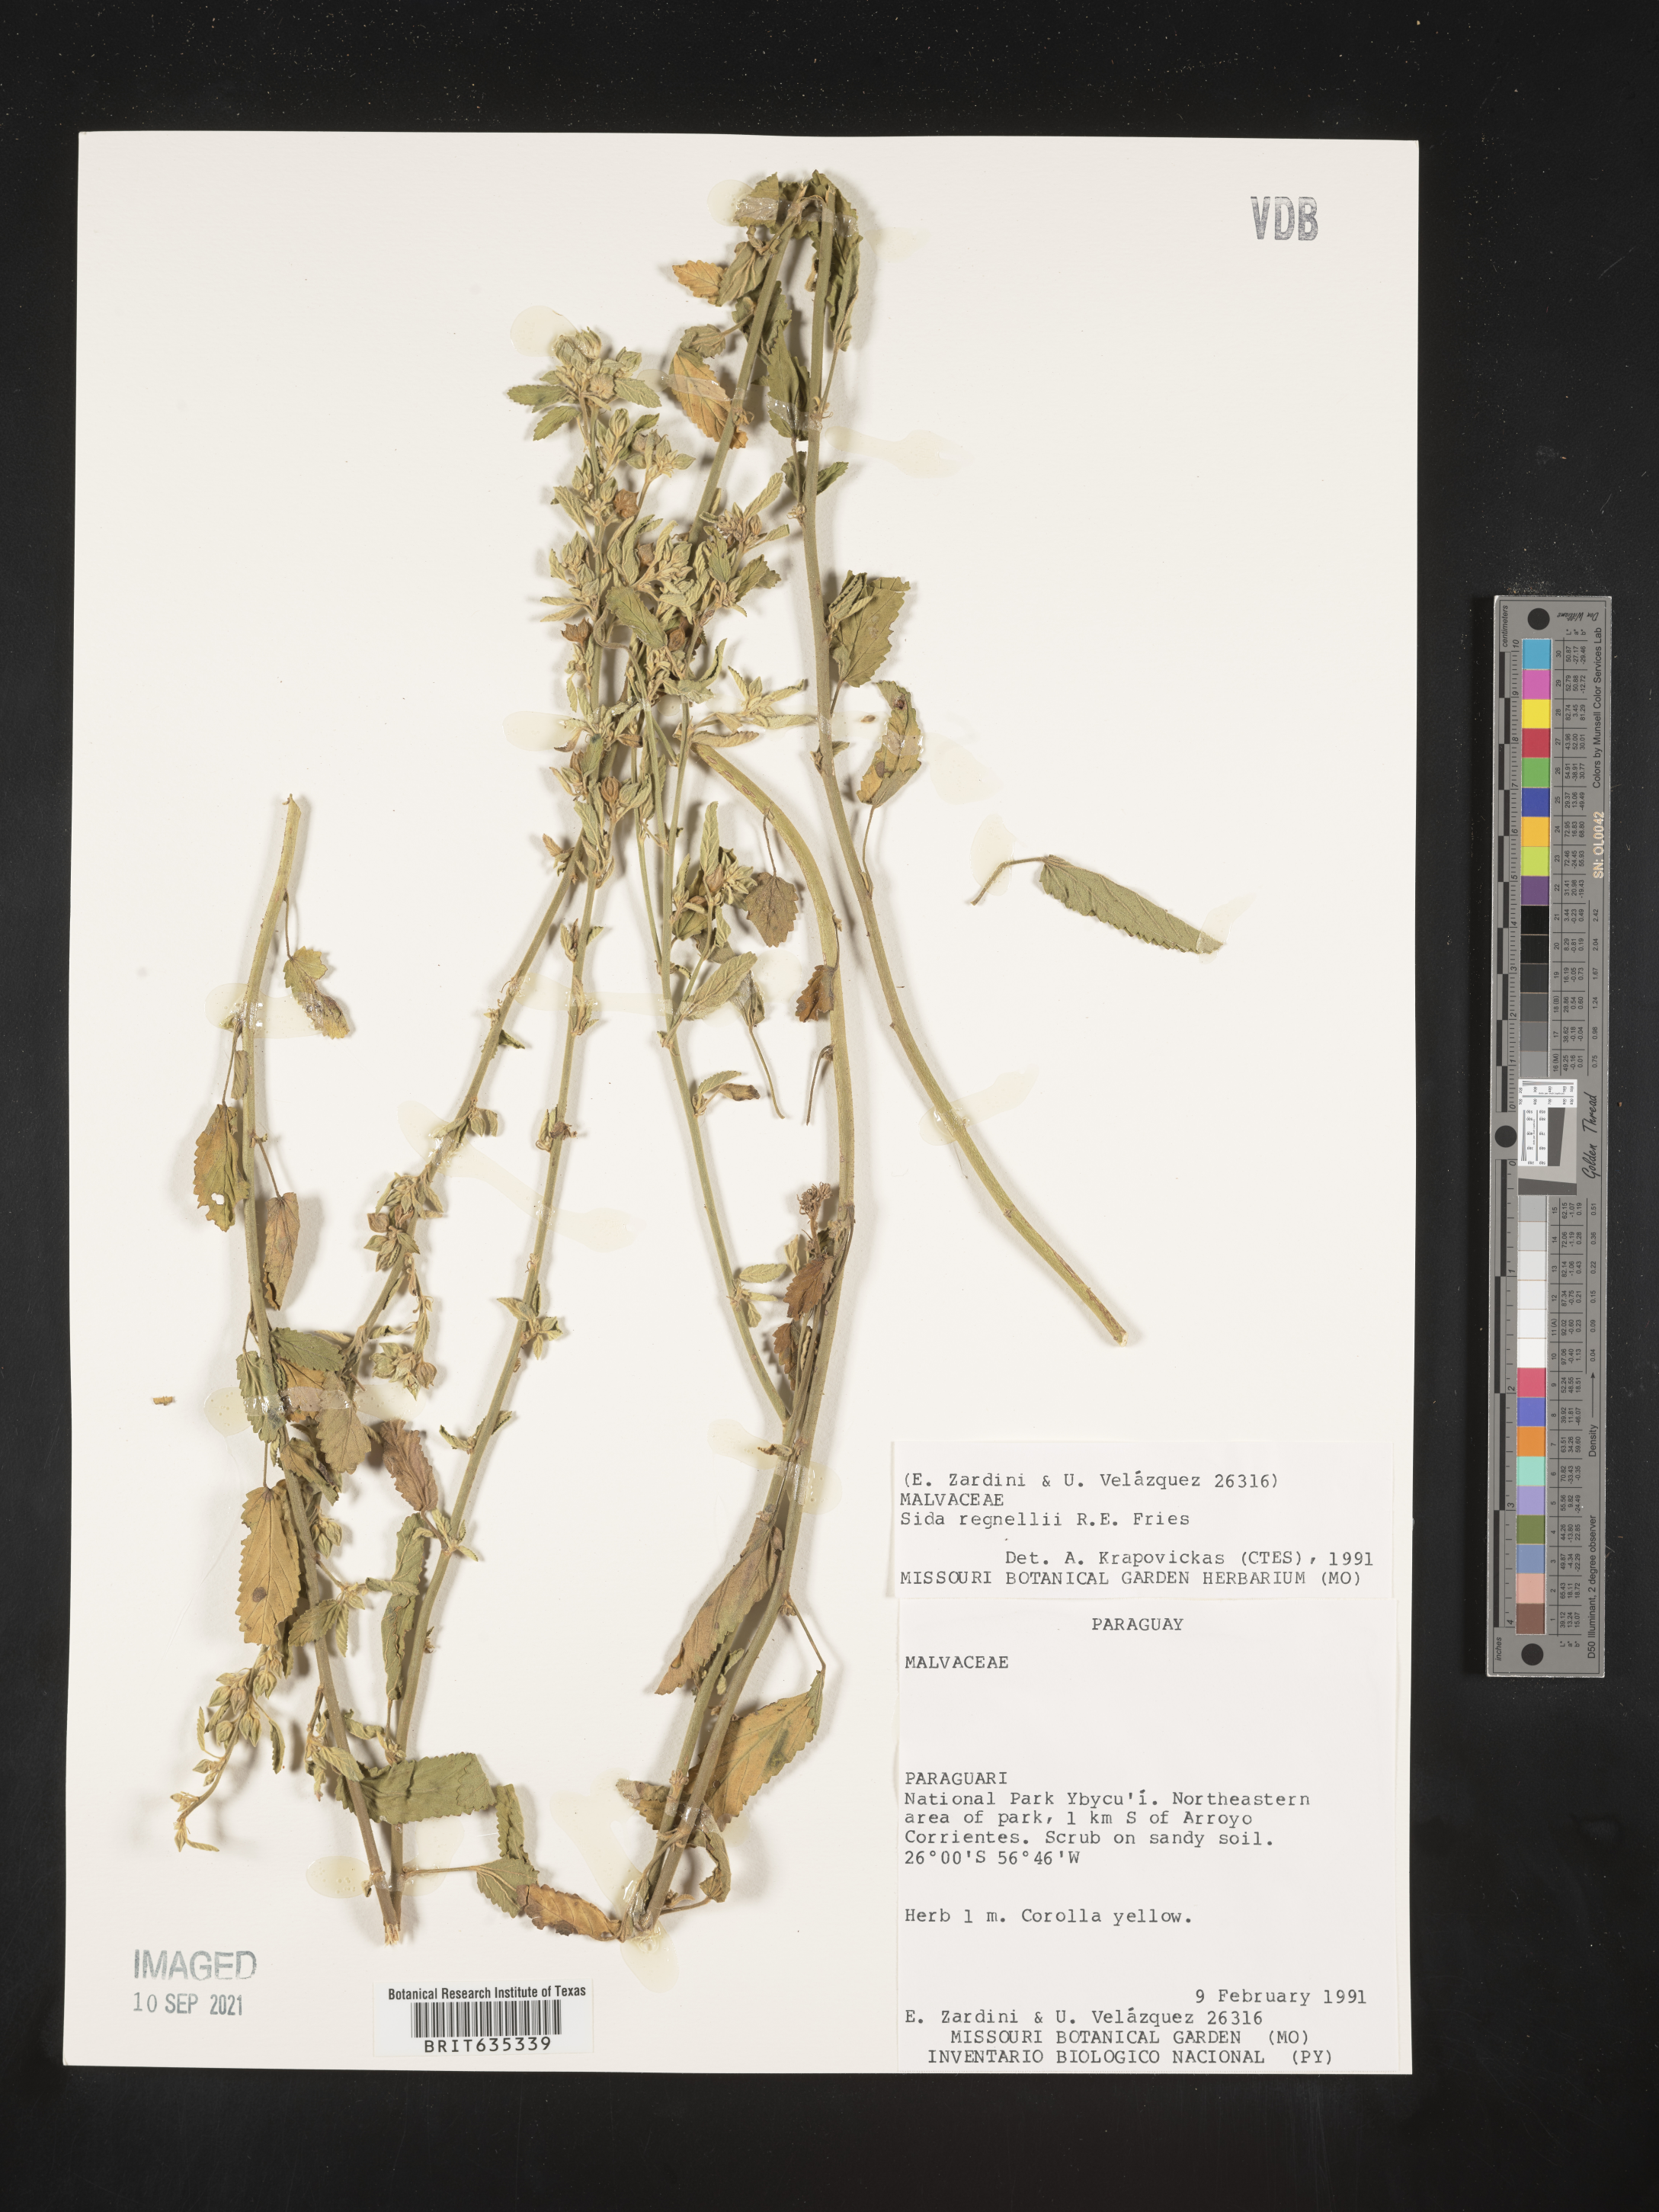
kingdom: Plantae
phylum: Tracheophyta
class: Magnoliopsida
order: Malvales
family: Malvaceae
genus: Sida
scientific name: Sida
